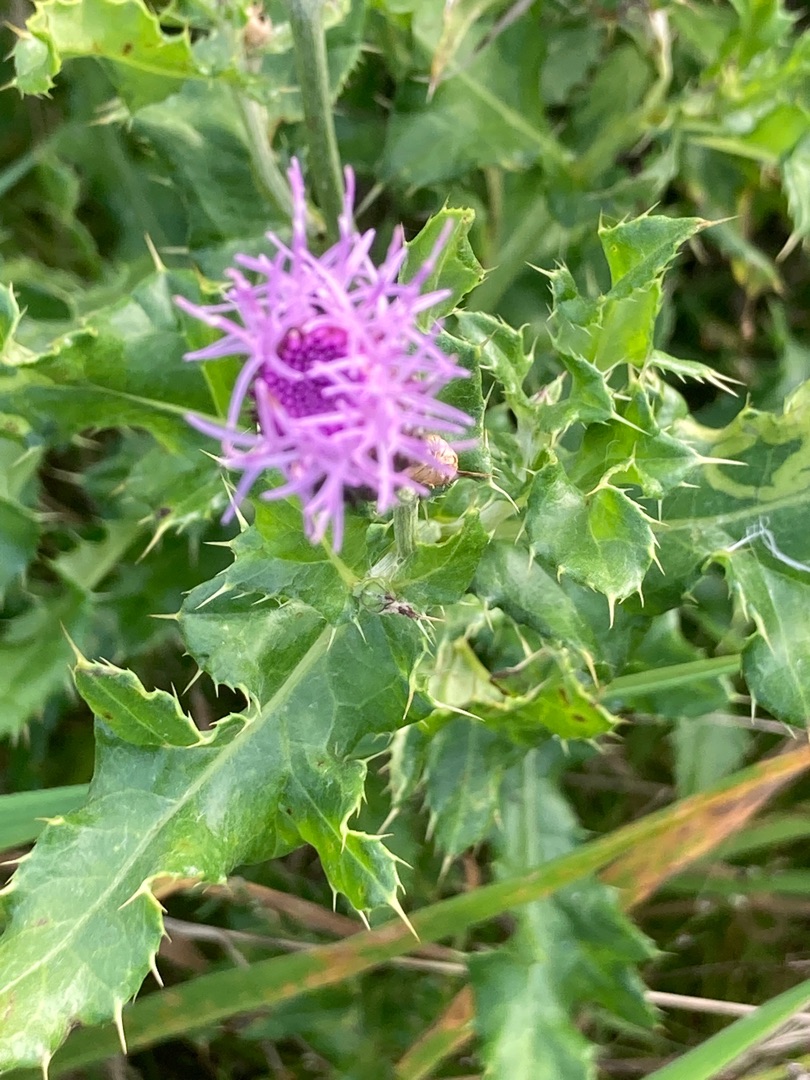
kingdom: Plantae
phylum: Tracheophyta
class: Magnoliopsida
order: Asterales
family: Asteraceae
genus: Cirsium
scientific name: Cirsium arvense
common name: Ager-tidsel
